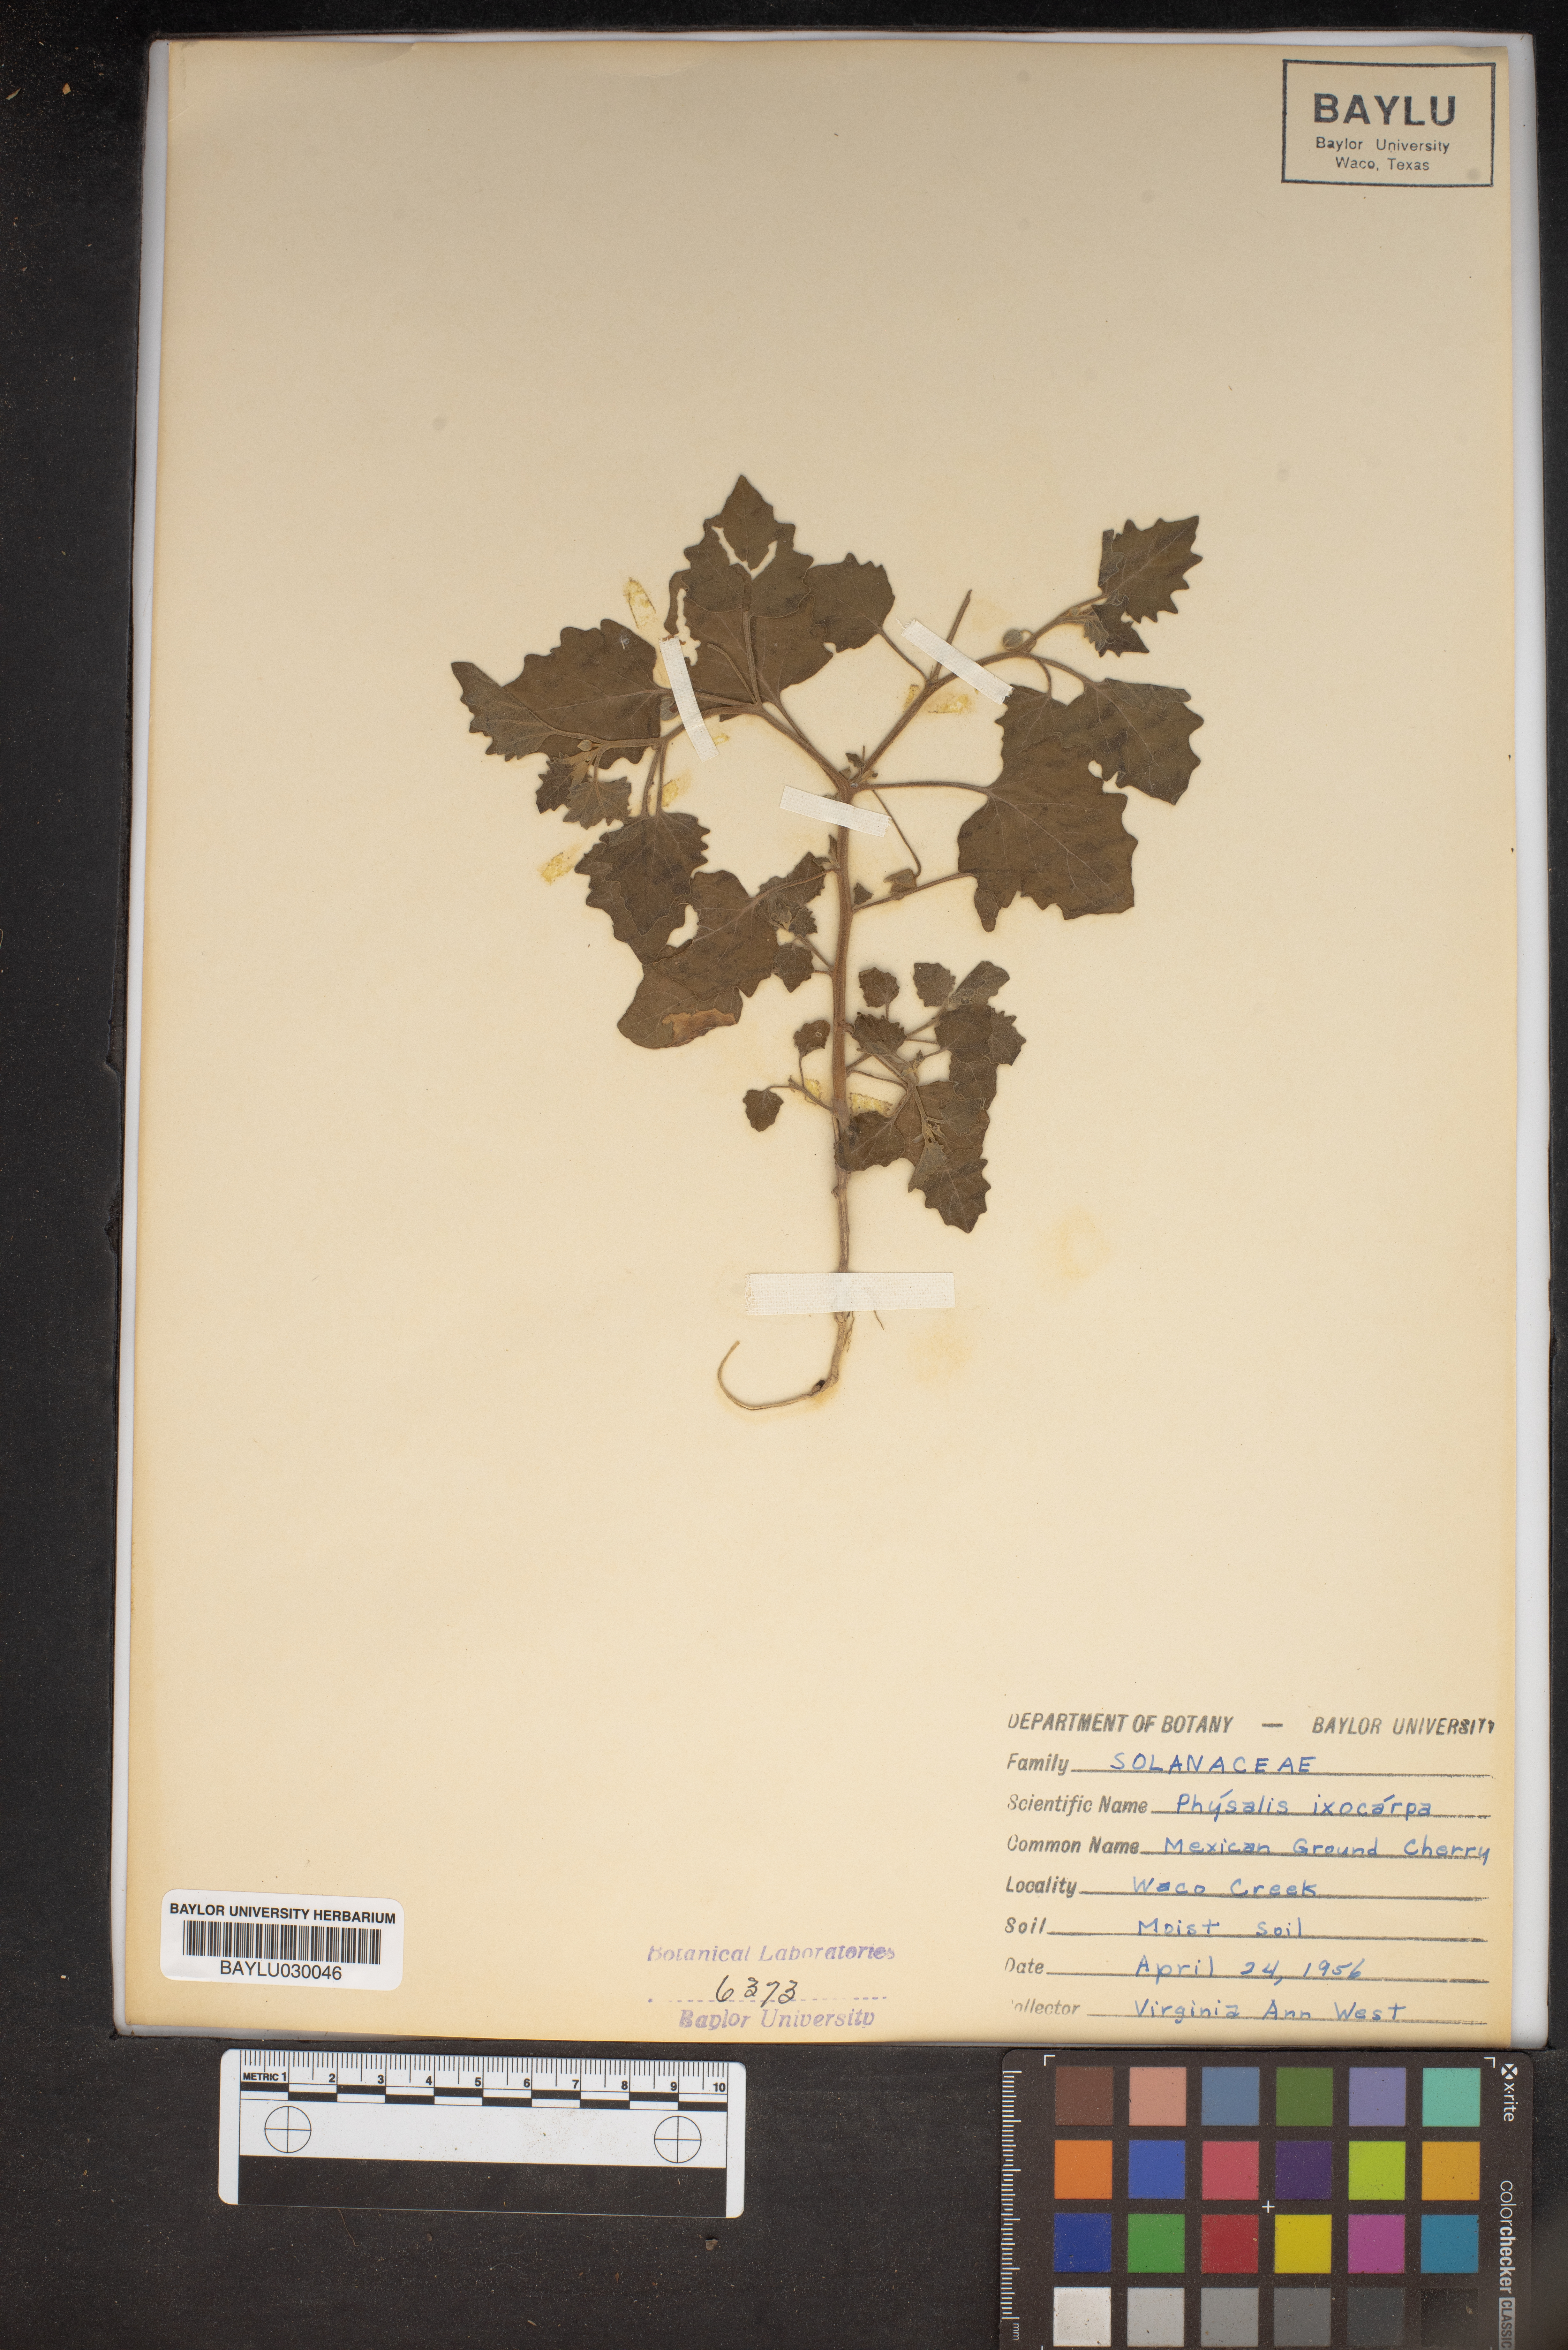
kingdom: Plantae
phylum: Tracheophyta
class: Magnoliopsida
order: Solanales
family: Solanaceae
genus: Physalis
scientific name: Physalis
